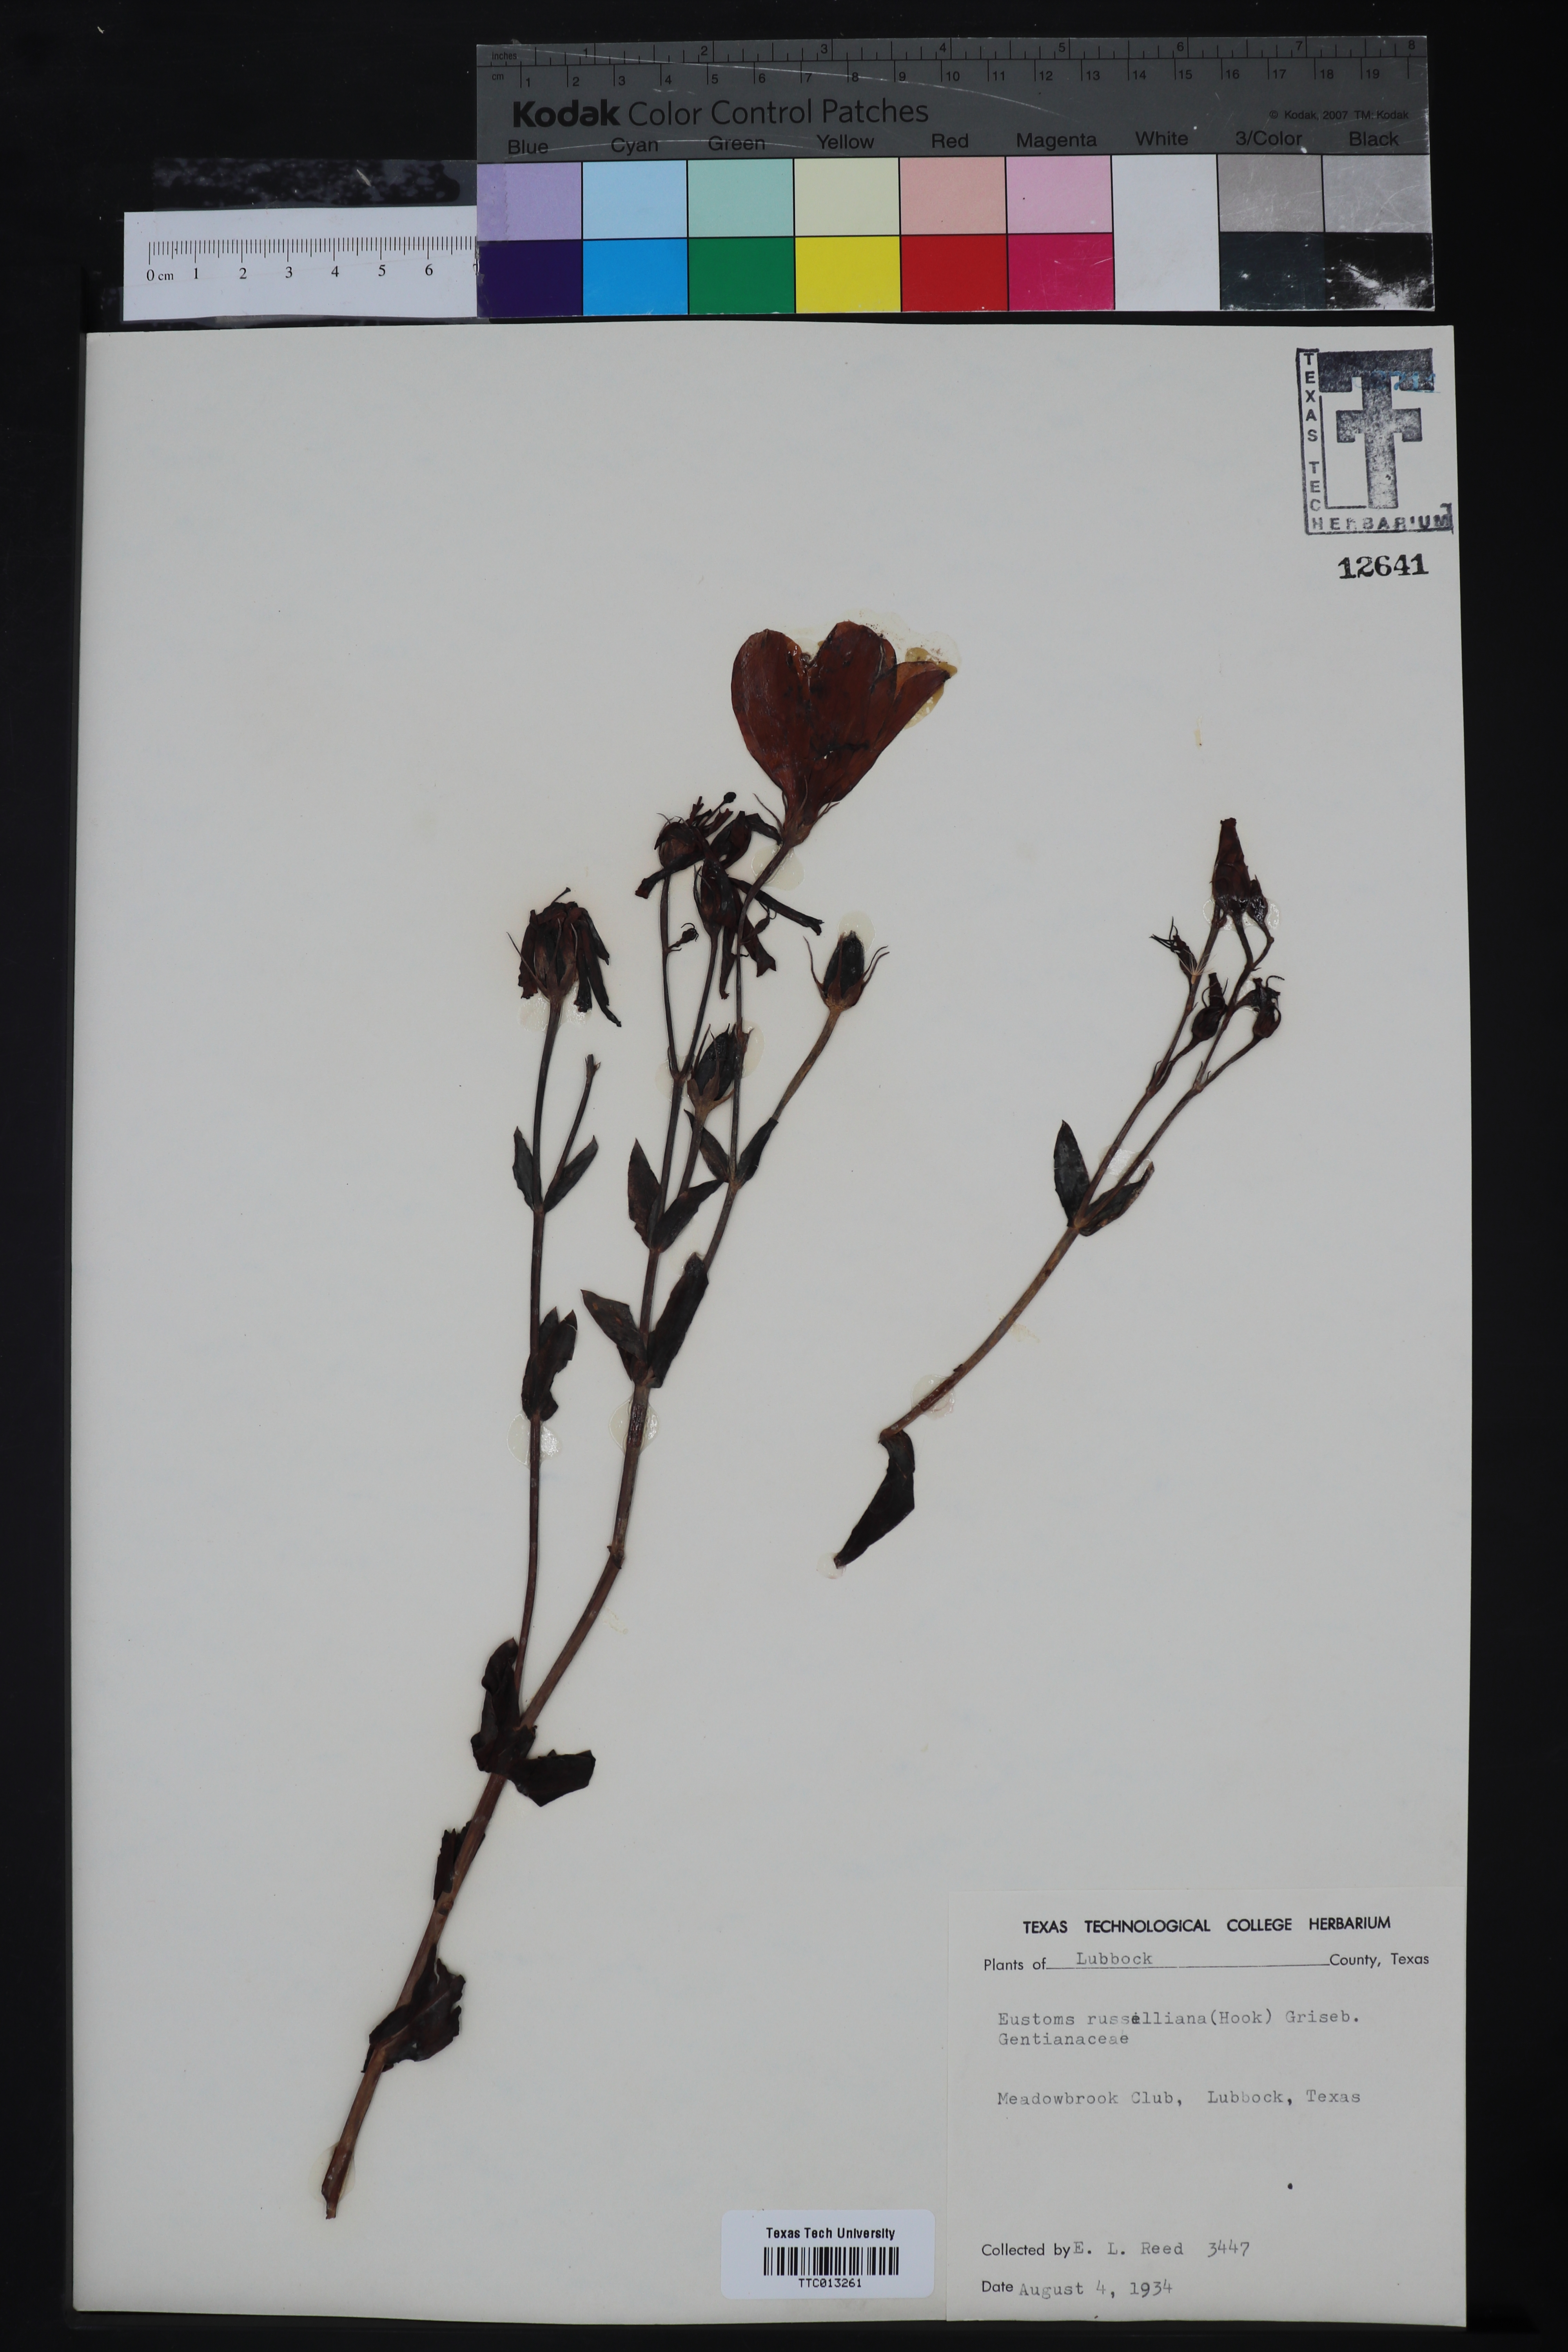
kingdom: Plantae
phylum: Tracheophyta
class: Magnoliopsida
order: Gentianales
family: Gentianaceae
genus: Eustoma
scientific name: Eustoma russellianum
